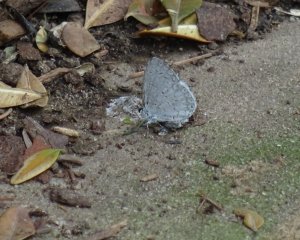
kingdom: Animalia
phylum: Arthropoda
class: Insecta
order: Lepidoptera
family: Lycaenidae
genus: Cyaniris
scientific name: Cyaniris neglecta
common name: Summer Azure
